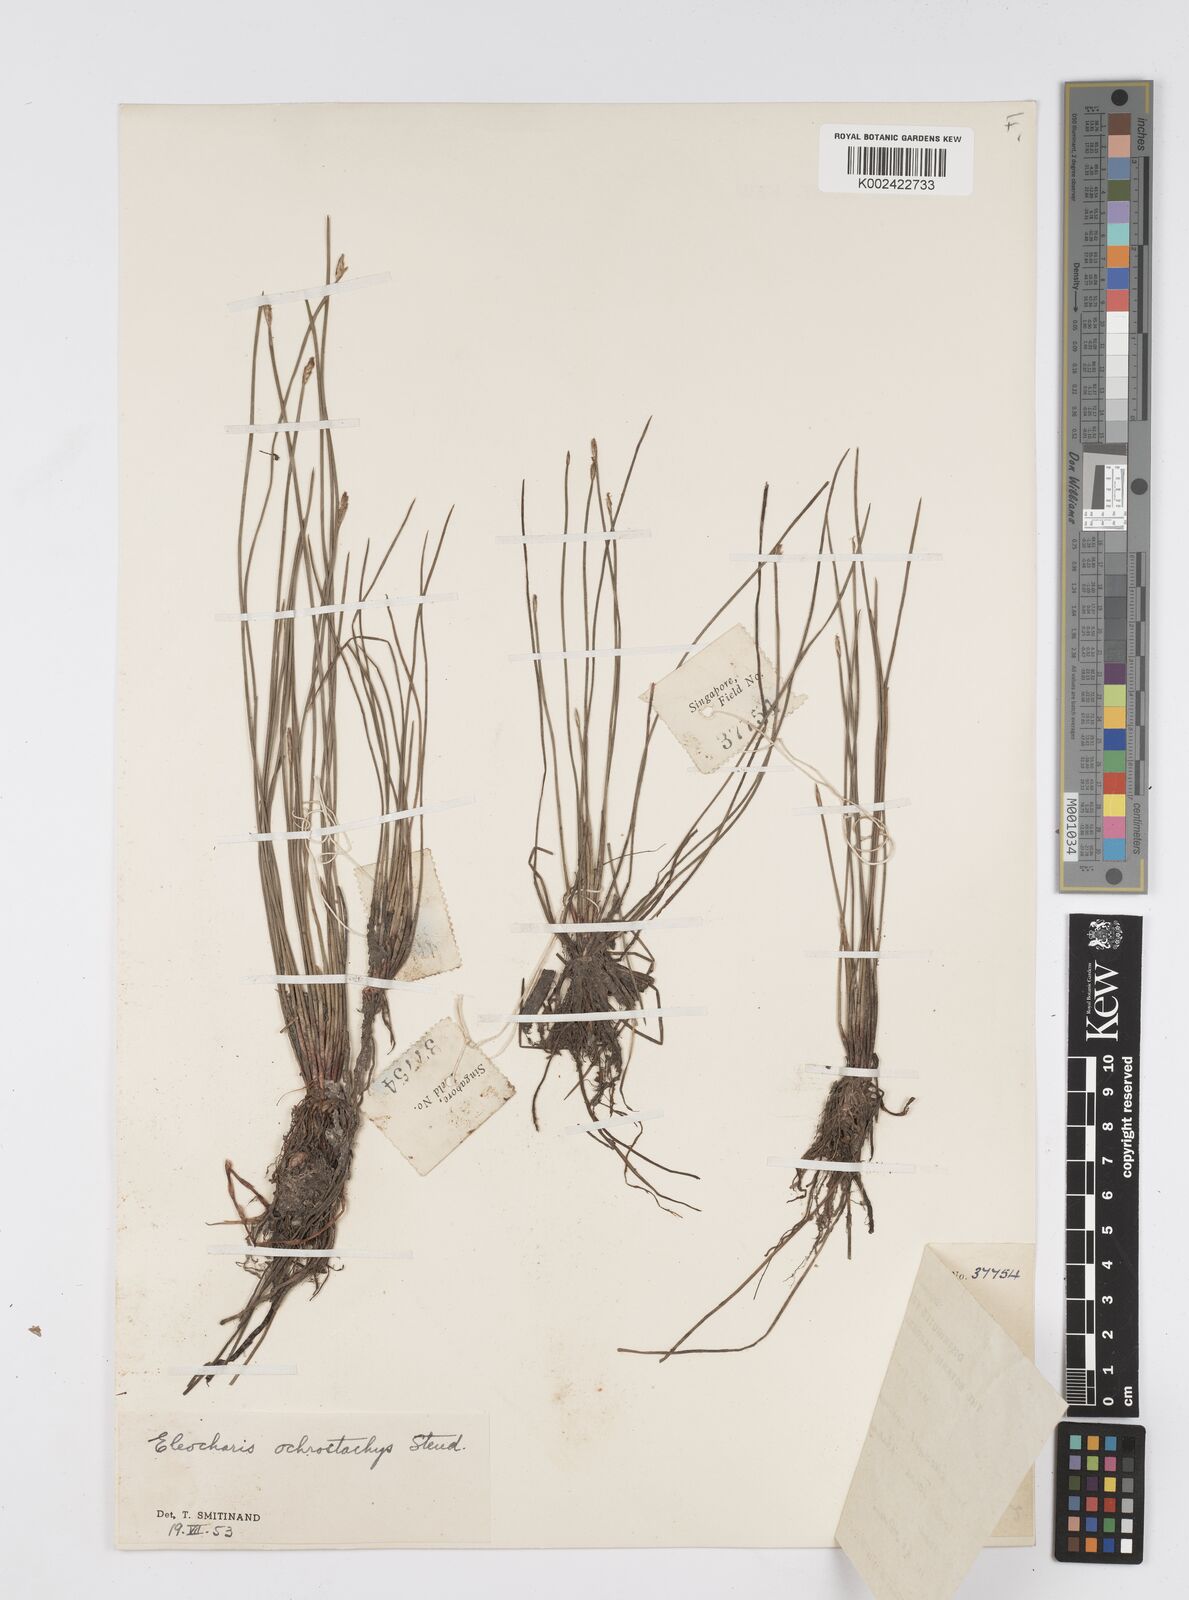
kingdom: Plantae
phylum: Tracheophyta
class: Liliopsida
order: Poales
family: Cyperaceae
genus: Eleocharis
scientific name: Eleocharis variegata
